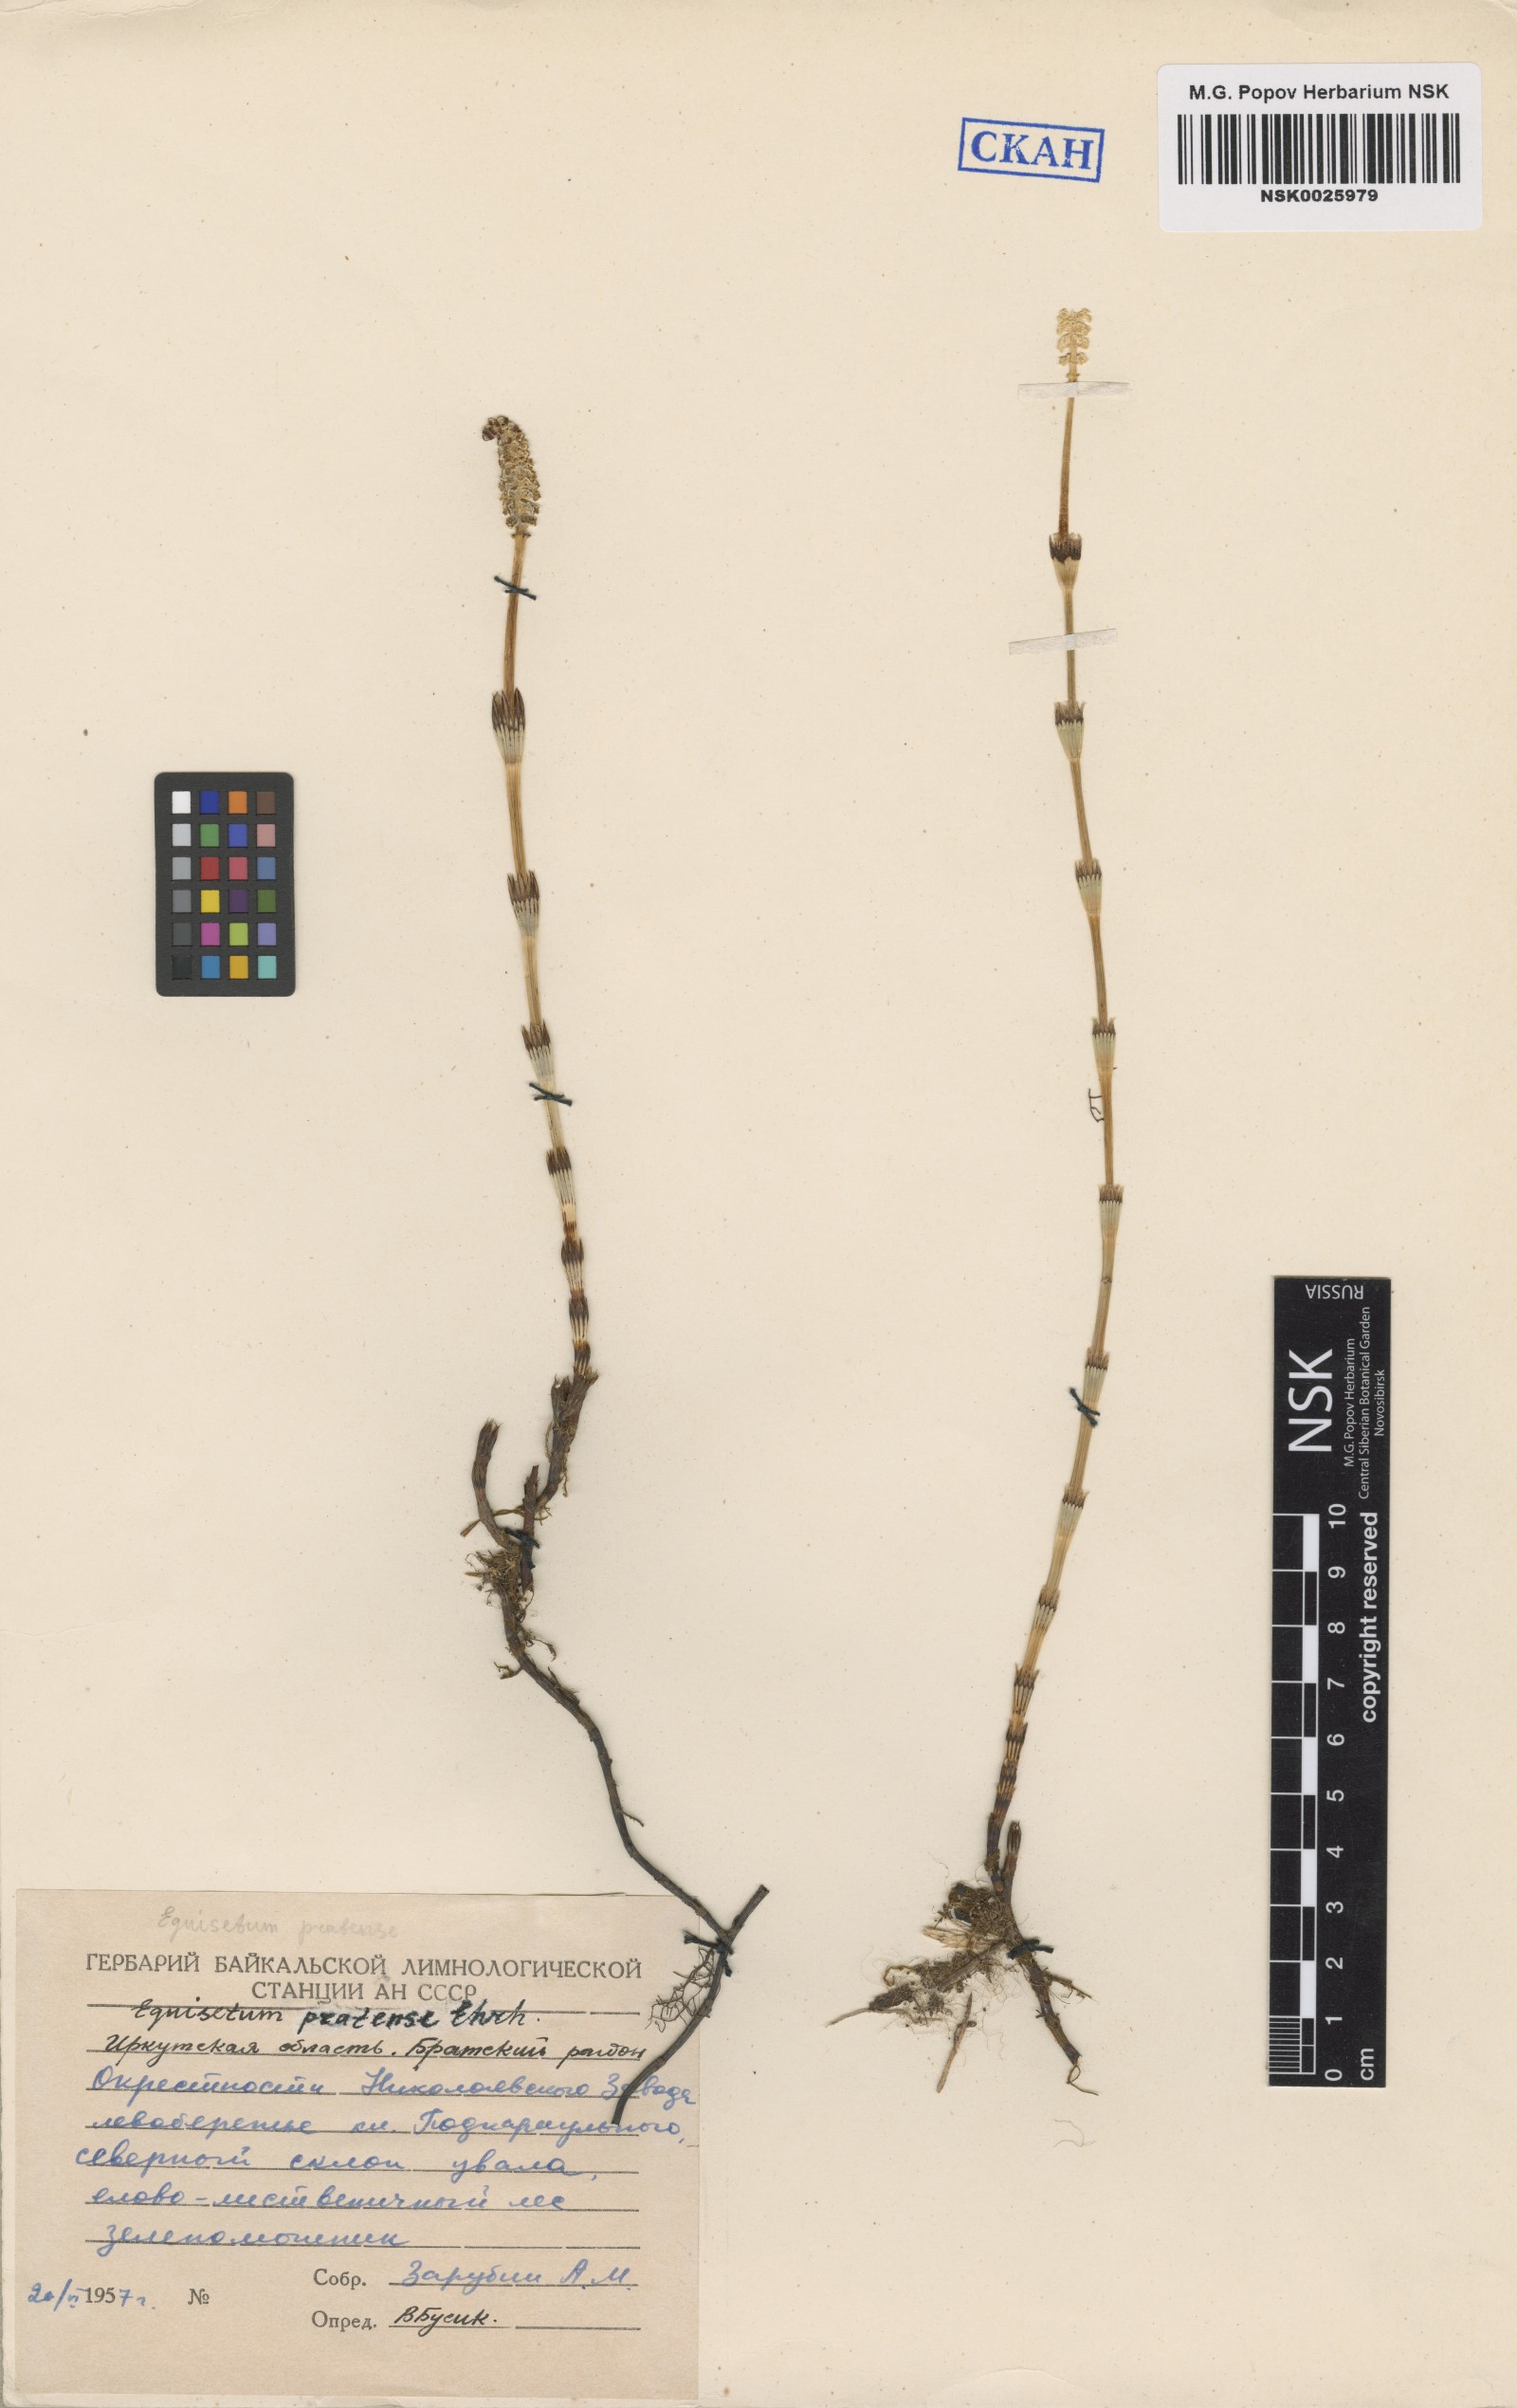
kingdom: Plantae
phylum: Tracheophyta
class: Polypodiopsida
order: Equisetales
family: Equisetaceae
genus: Equisetum
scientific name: Equisetum pratense
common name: Meadow horsetail
